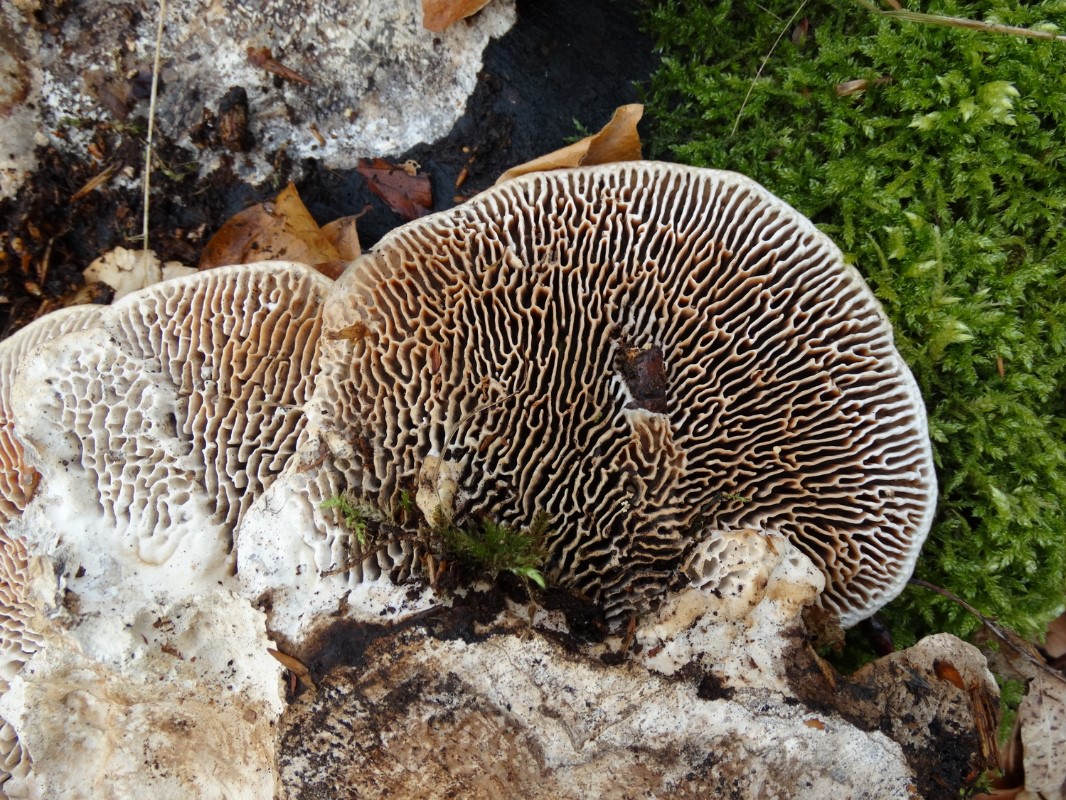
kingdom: Fungi
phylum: Basidiomycota
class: Agaricomycetes
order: Polyporales
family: Fomitopsidaceae
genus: Daedalea
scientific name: Daedalea quercina
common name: ege-labyrintsvamp
